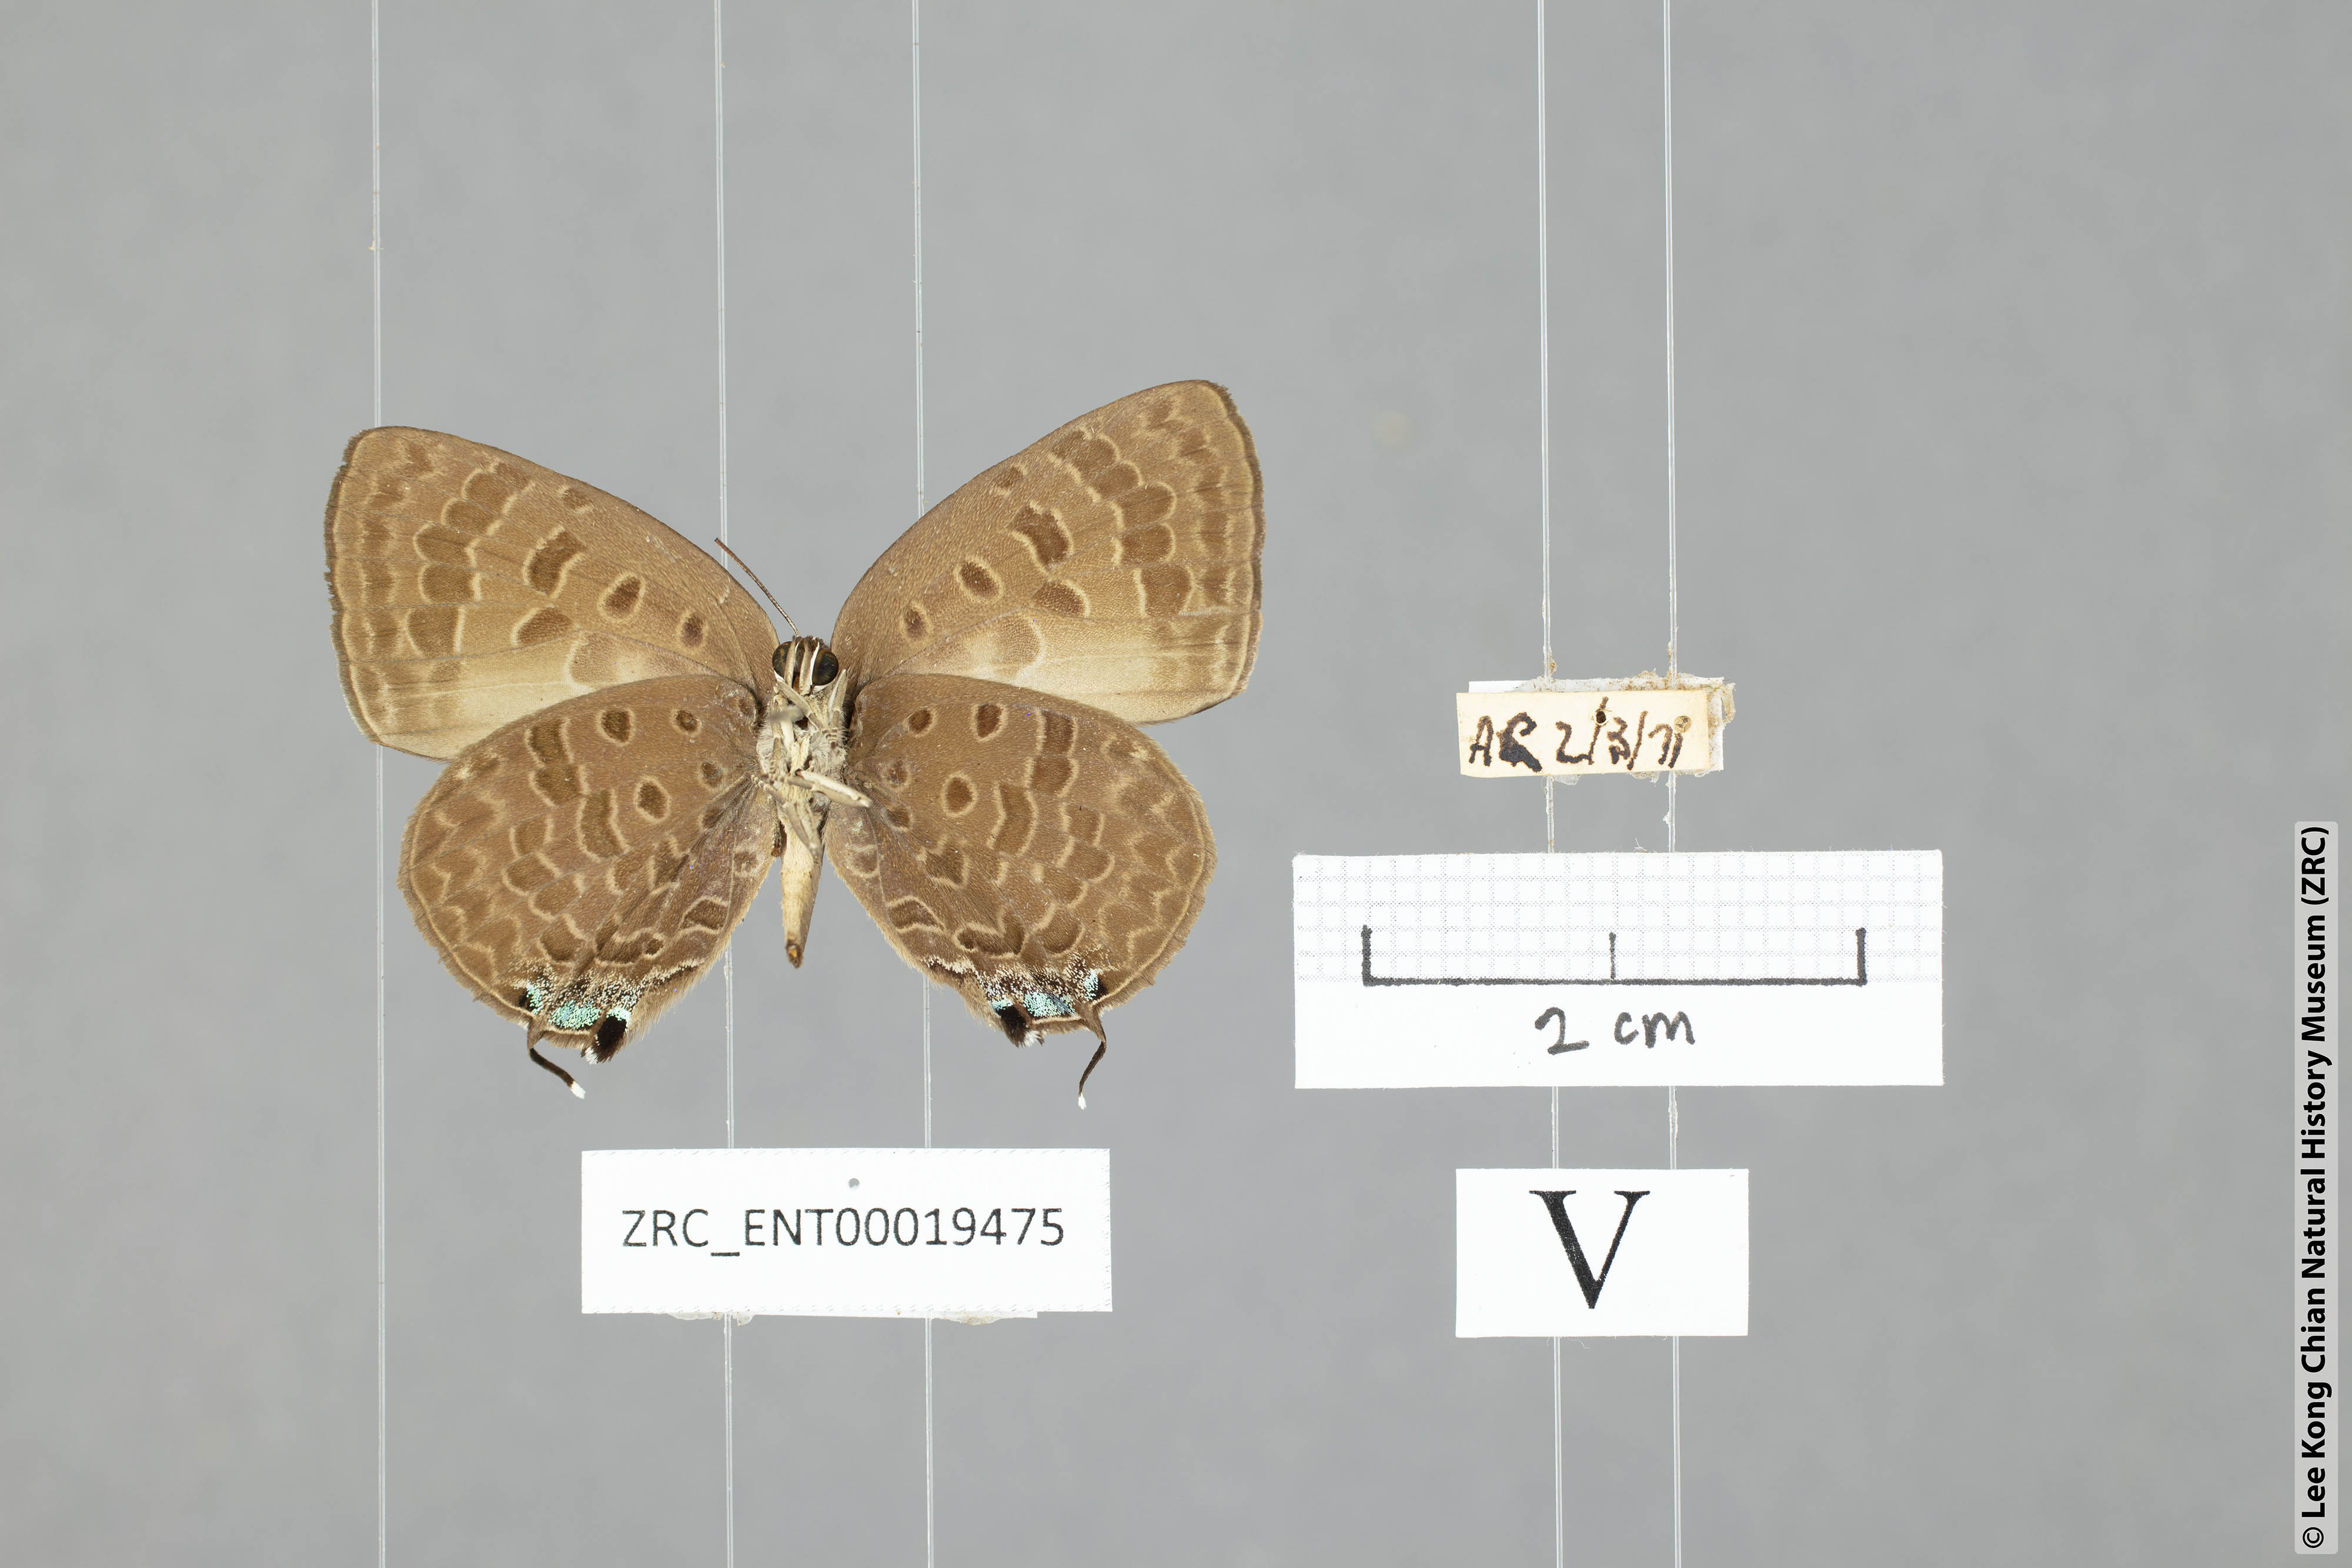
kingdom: Animalia
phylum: Arthropoda
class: Insecta
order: Lepidoptera
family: Lycaenidae
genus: Arhopala
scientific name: Arhopala azinis
